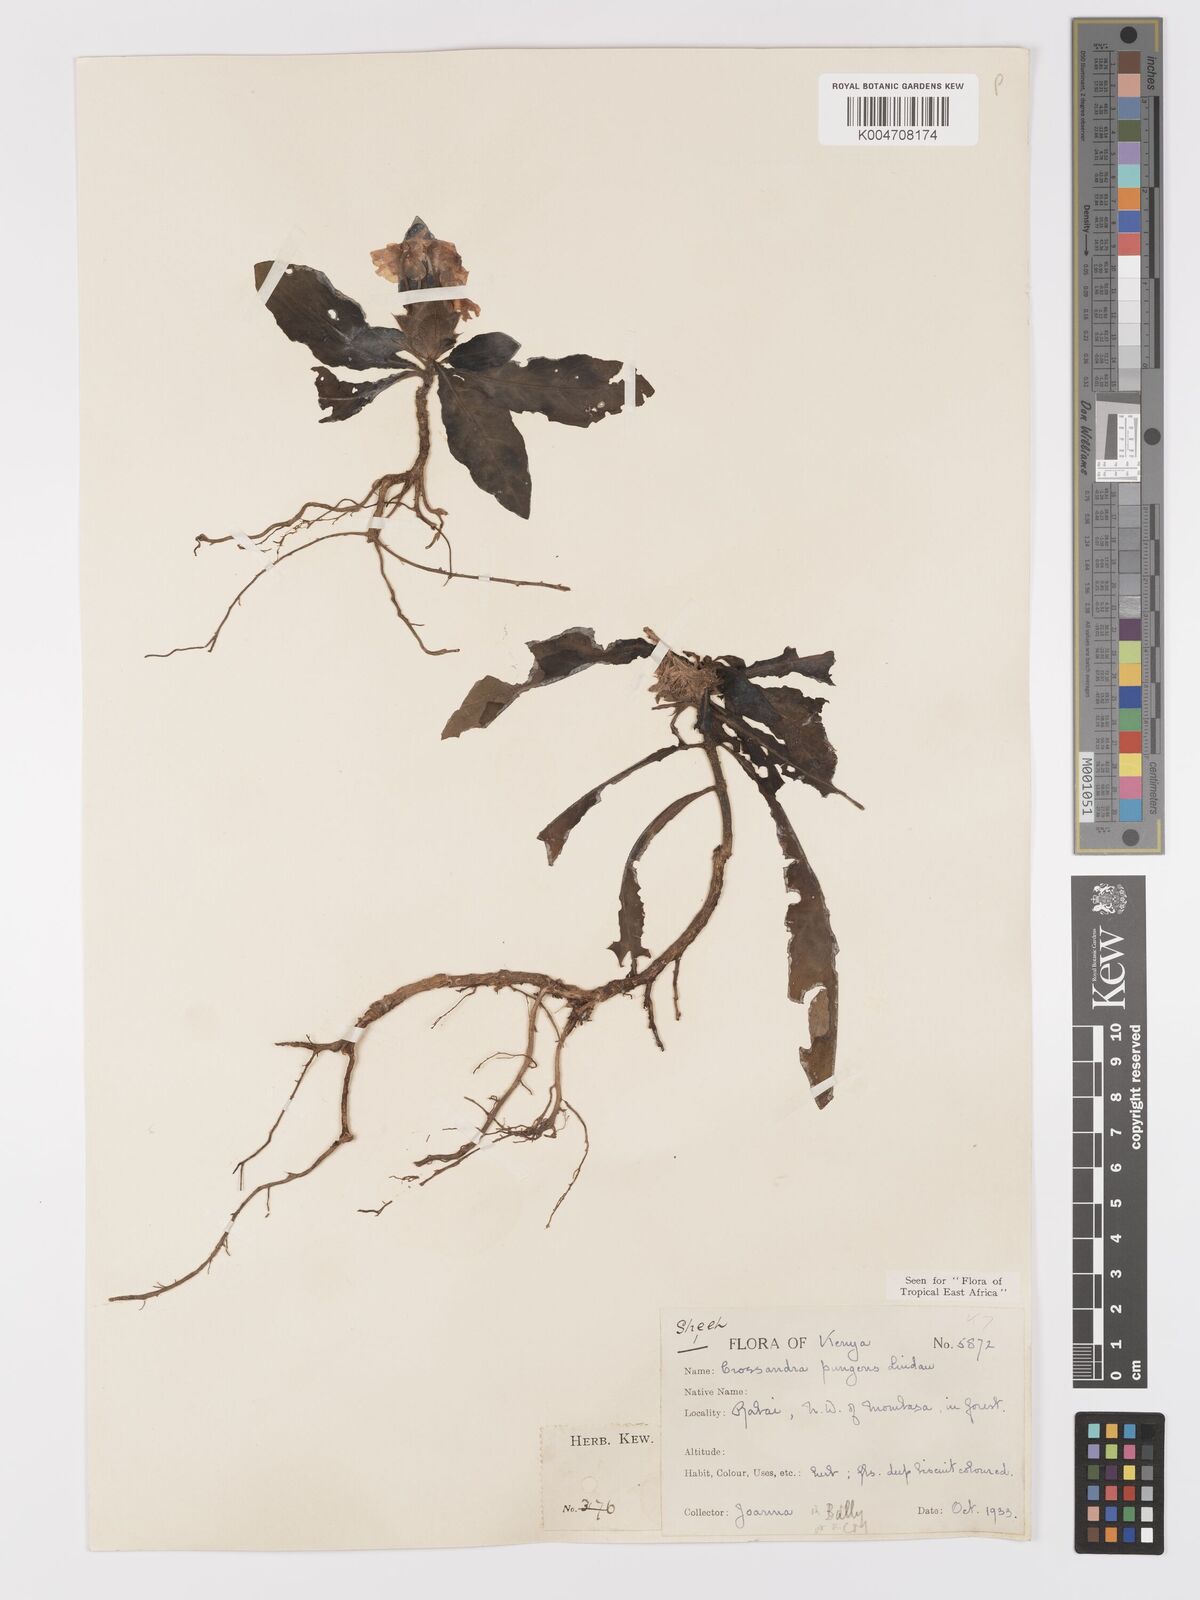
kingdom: Plantae
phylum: Tracheophyta
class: Magnoliopsida
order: Lamiales
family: Acanthaceae
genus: Crossandra
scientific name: Crossandra pungens
